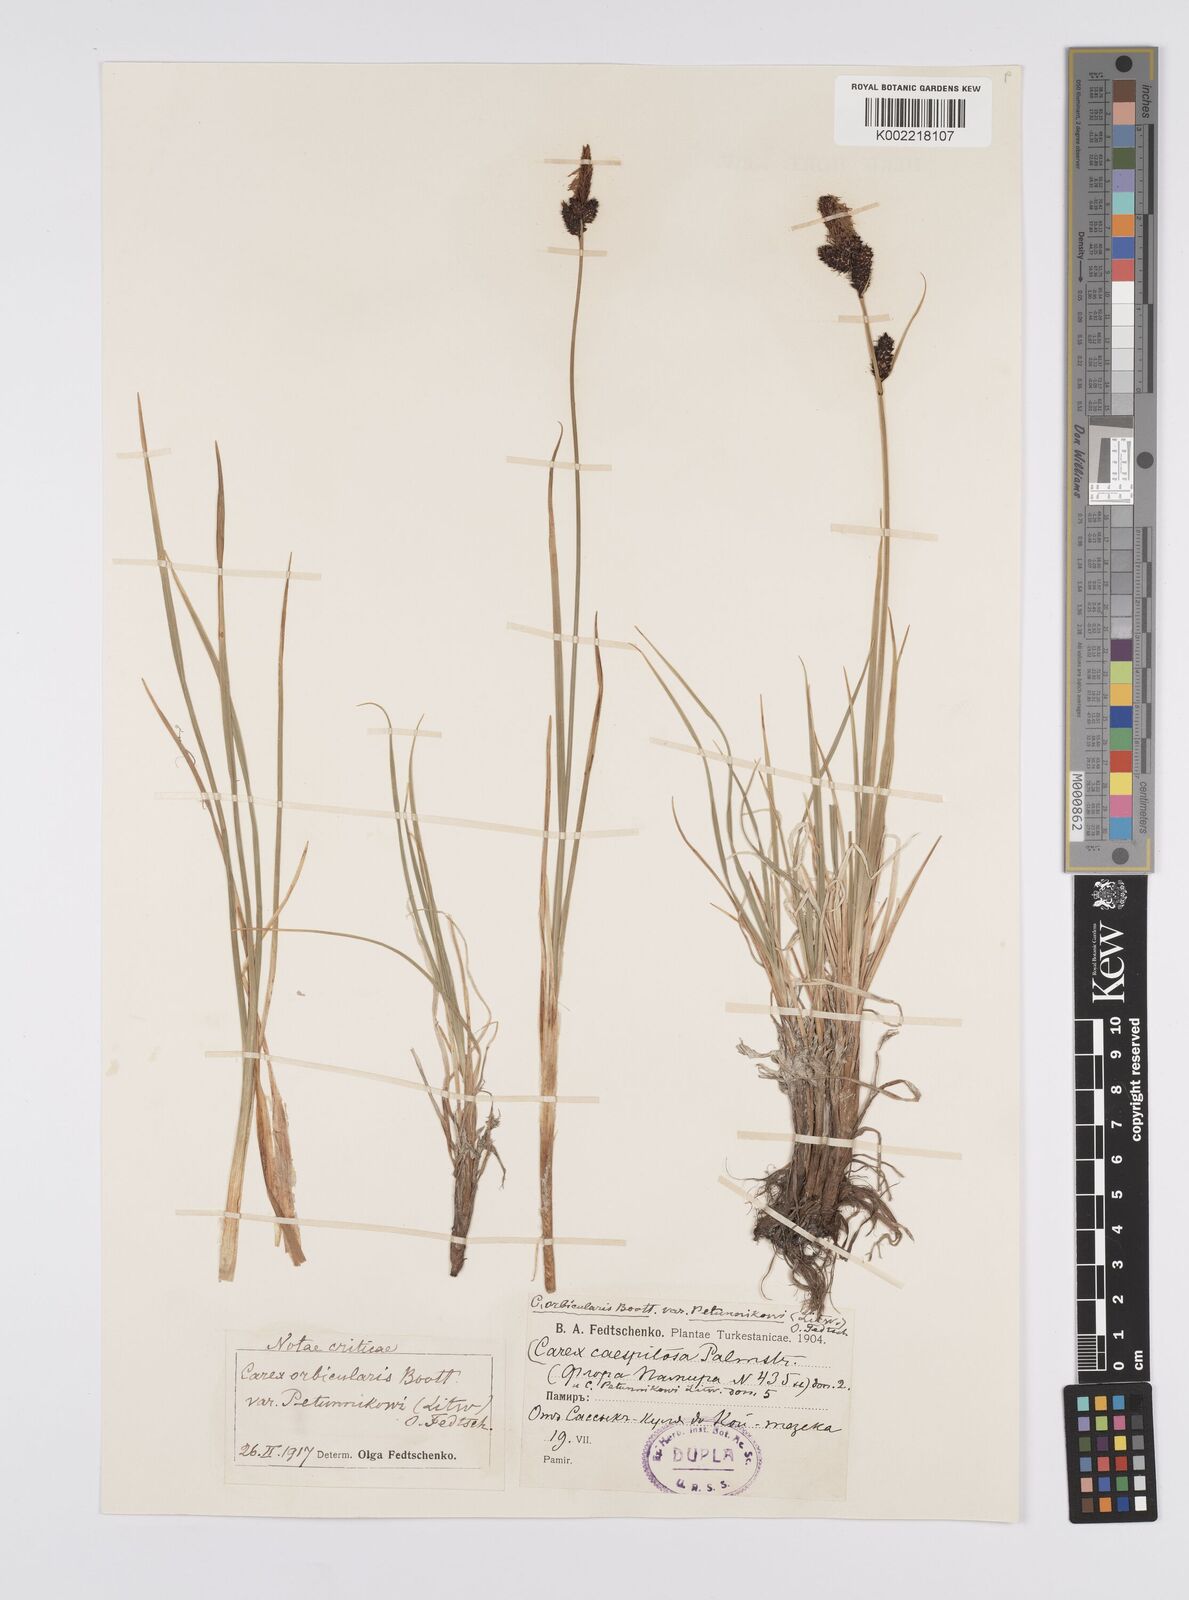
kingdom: Plantae
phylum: Tracheophyta
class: Liliopsida
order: Poales
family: Cyperaceae
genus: Carex
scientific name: Carex orbicularis
